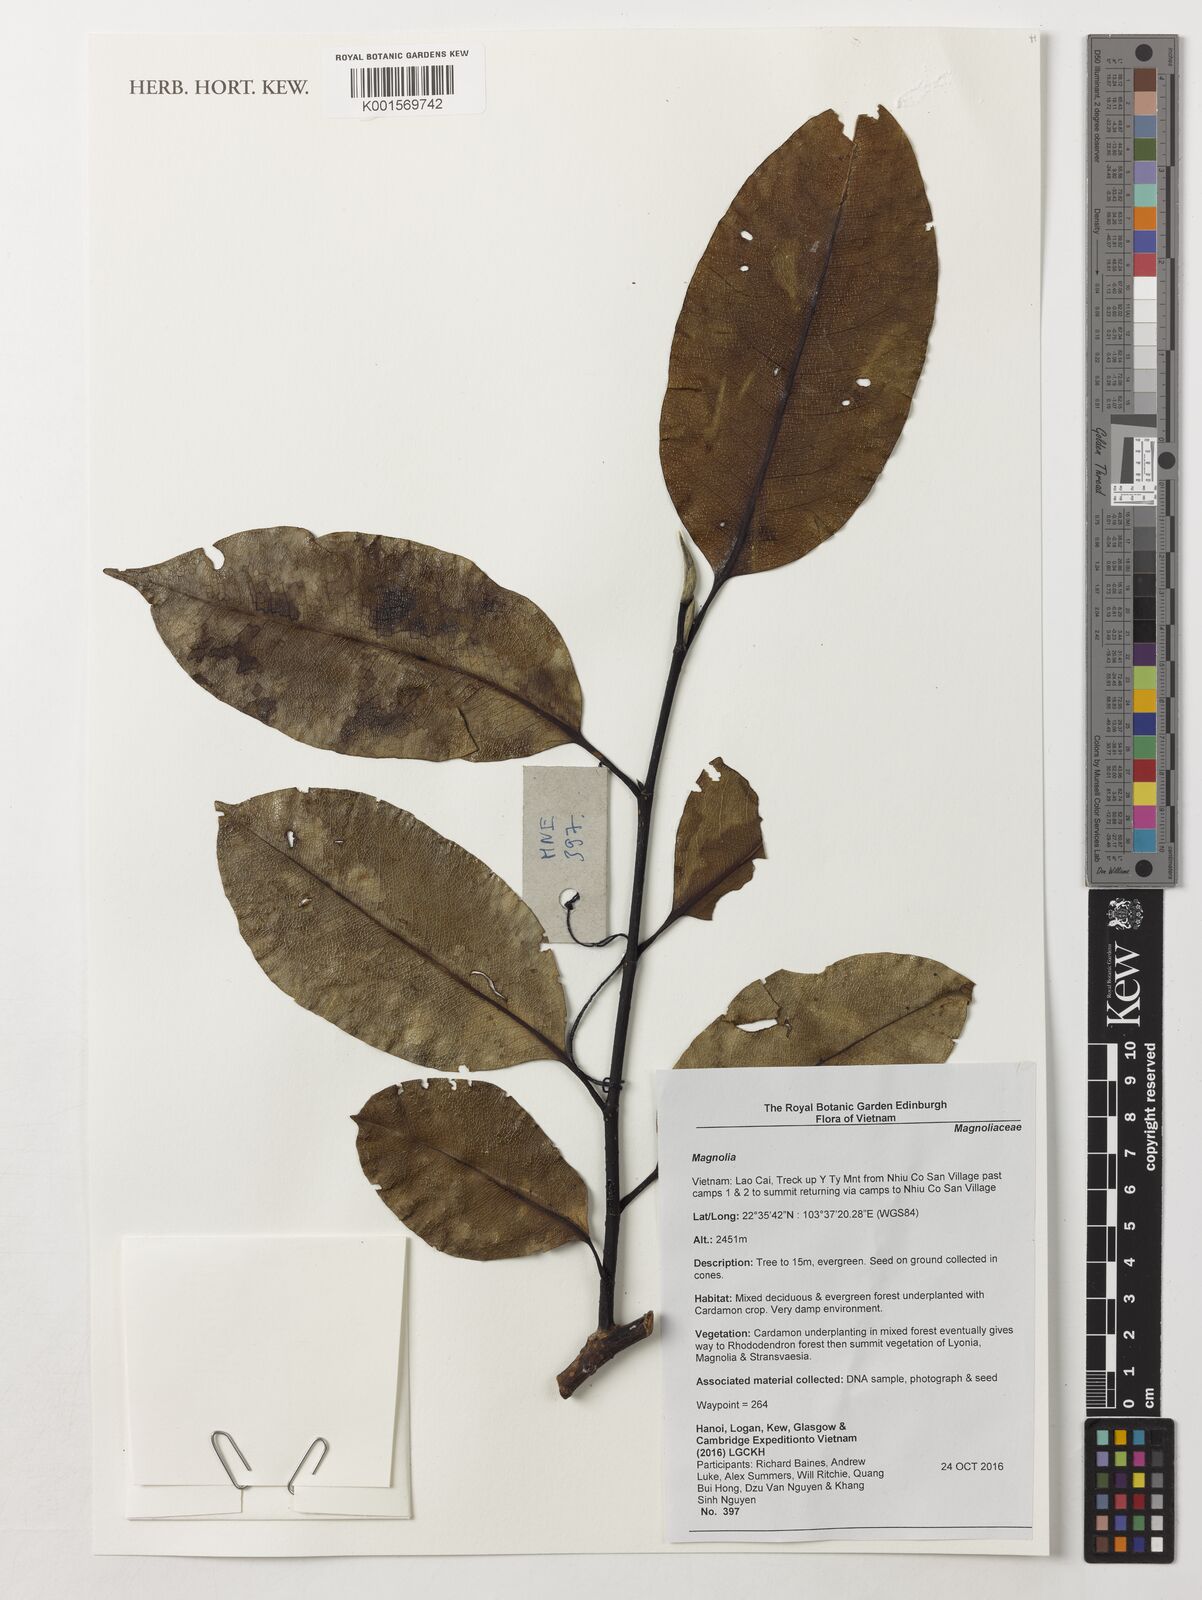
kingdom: Plantae
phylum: Tracheophyta
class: Magnoliopsida
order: Magnoliales
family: Magnoliaceae
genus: Magnolia
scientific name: Magnolia
